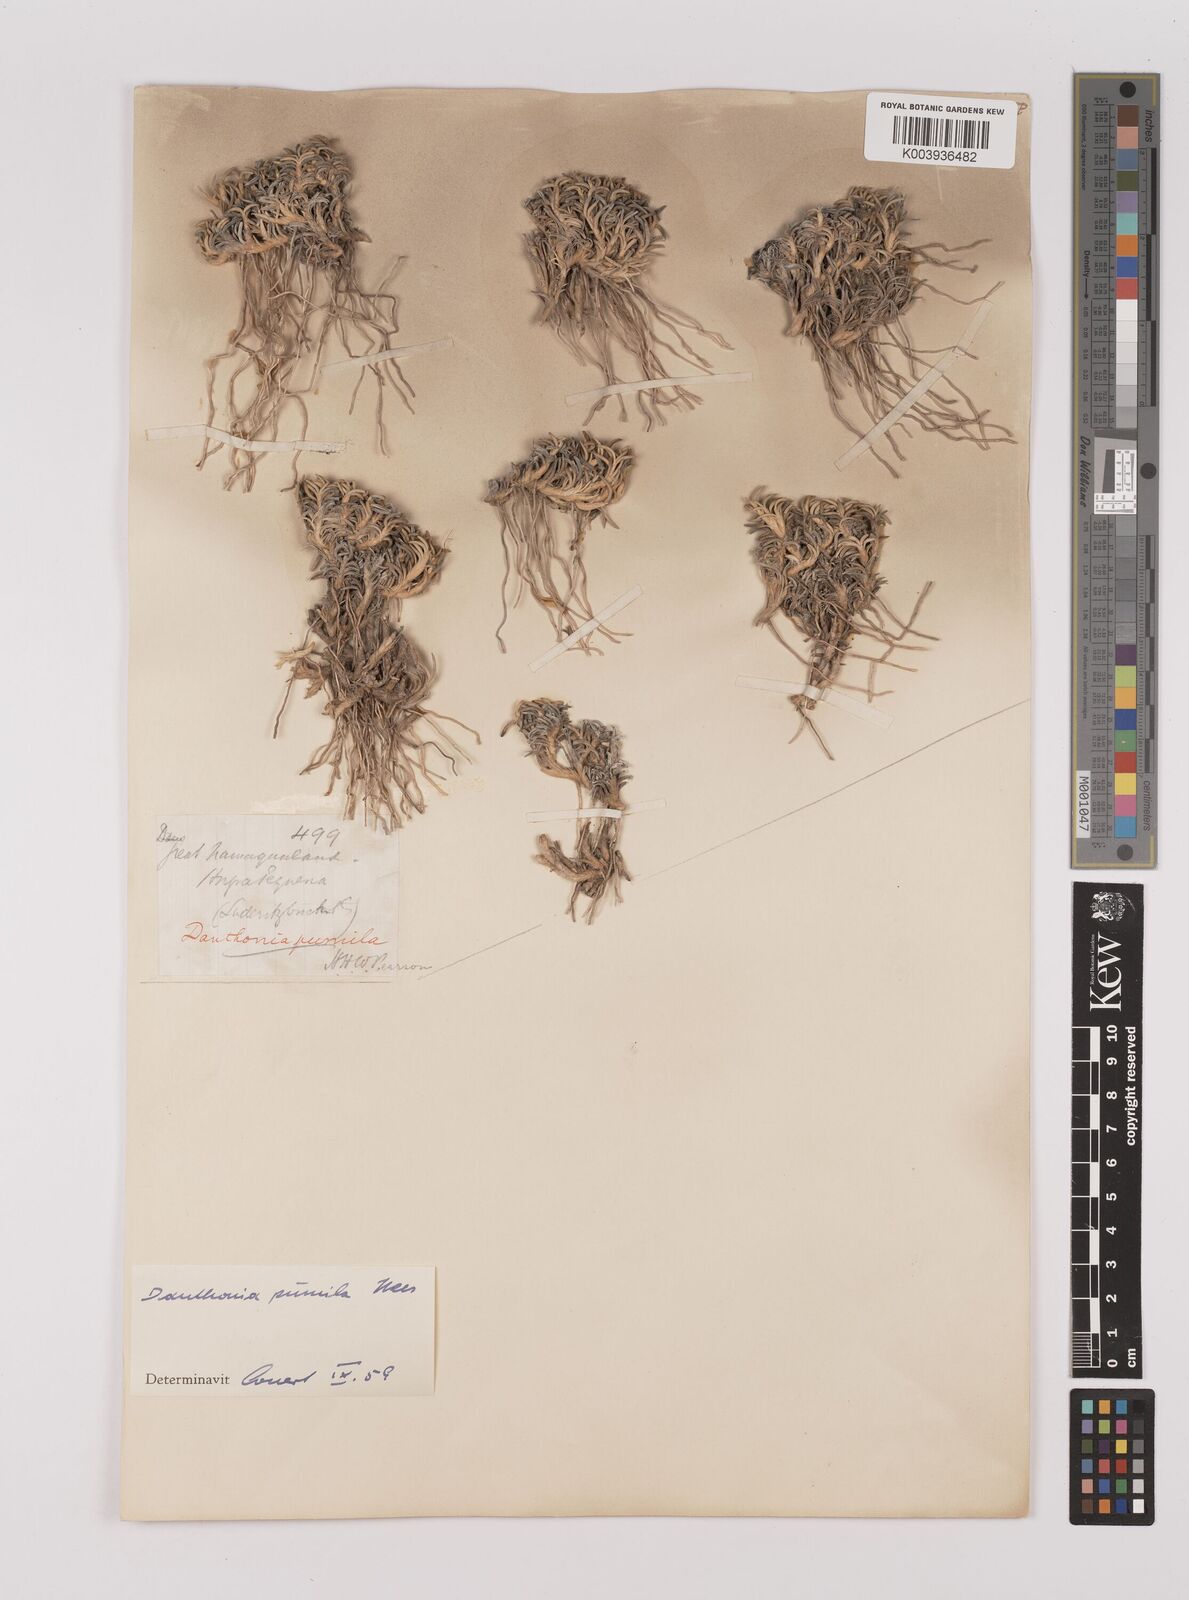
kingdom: Plantae
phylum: Tracheophyta
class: Liliopsida
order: Poales
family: Poaceae
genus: Dregeochloa
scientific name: Dregeochloa pumila
